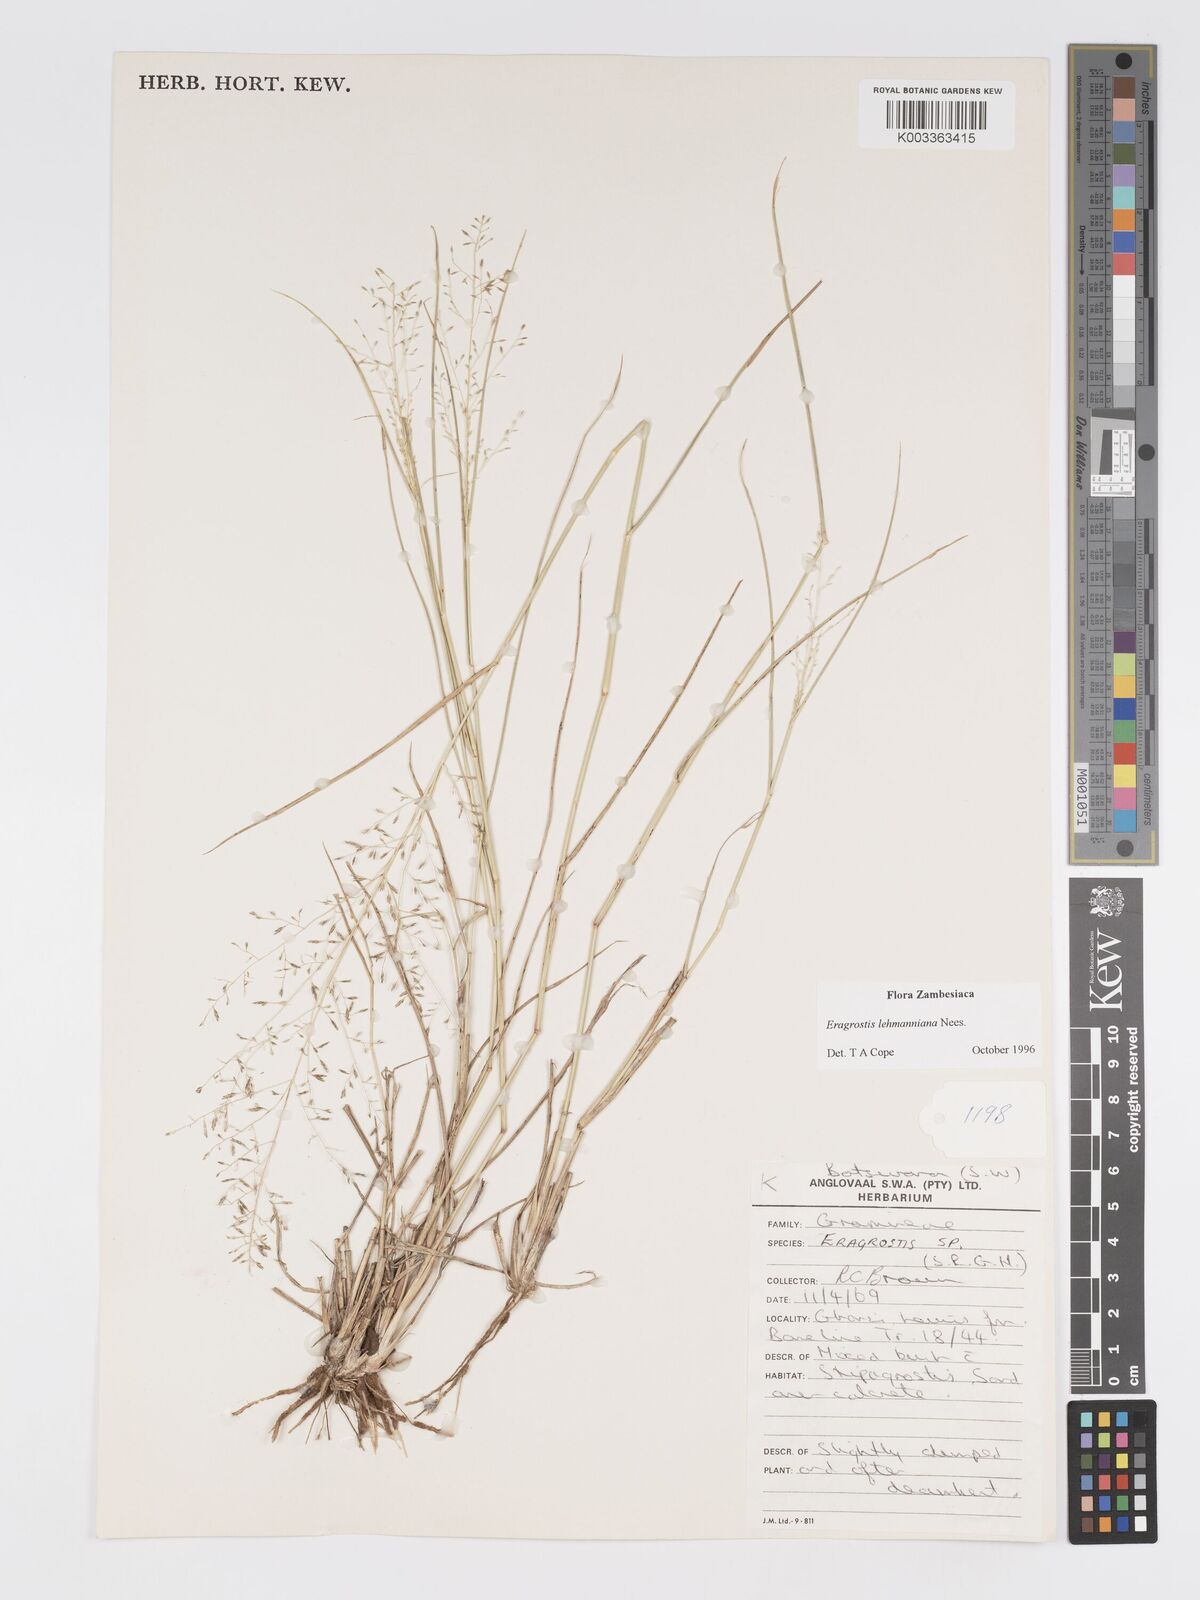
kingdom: Plantae
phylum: Tracheophyta
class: Liliopsida
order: Poales
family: Poaceae
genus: Eragrostis
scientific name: Eragrostis lehmanniana
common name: Lehmann lovegrass
